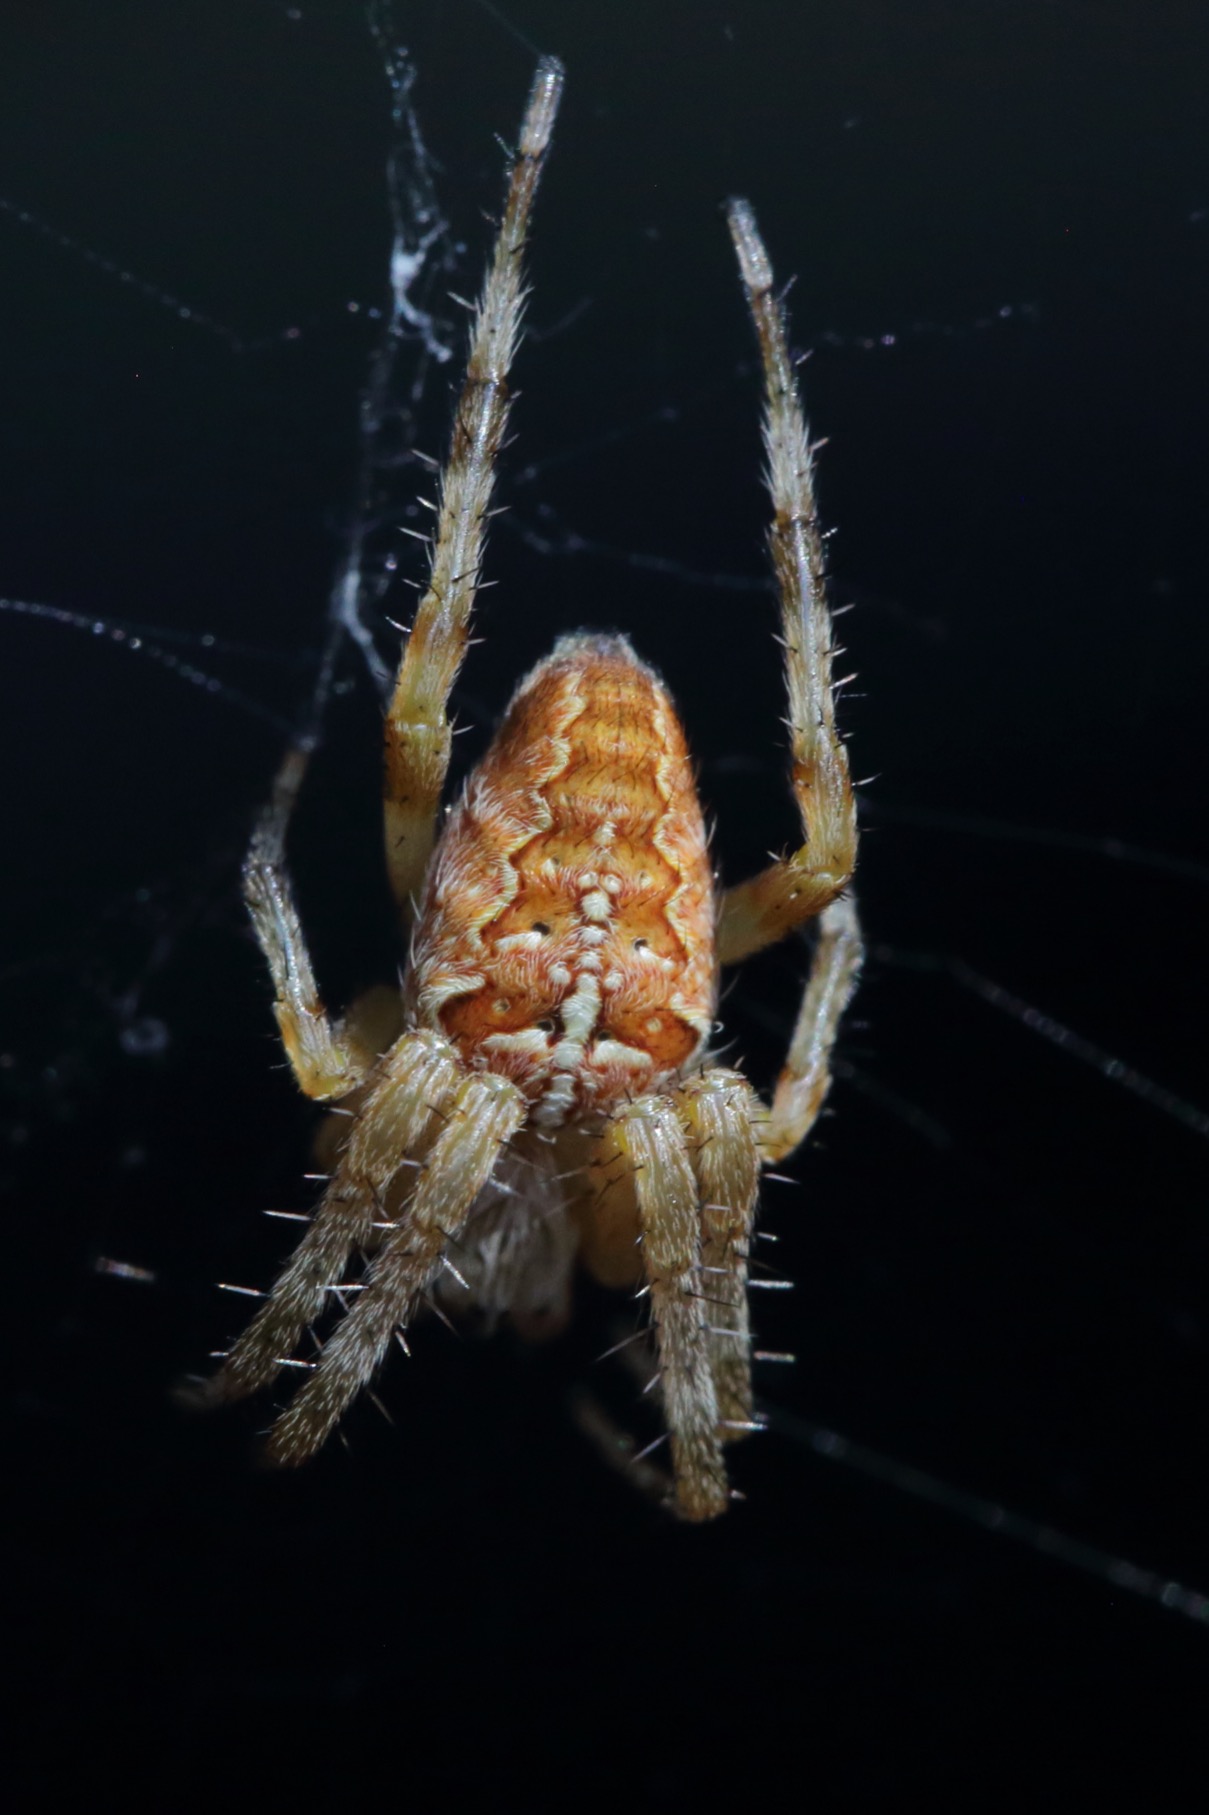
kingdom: Animalia
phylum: Arthropoda
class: Arachnida
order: Araneae
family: Araneidae
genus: Araneus
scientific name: Araneus diadematus
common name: Korsedderkop
